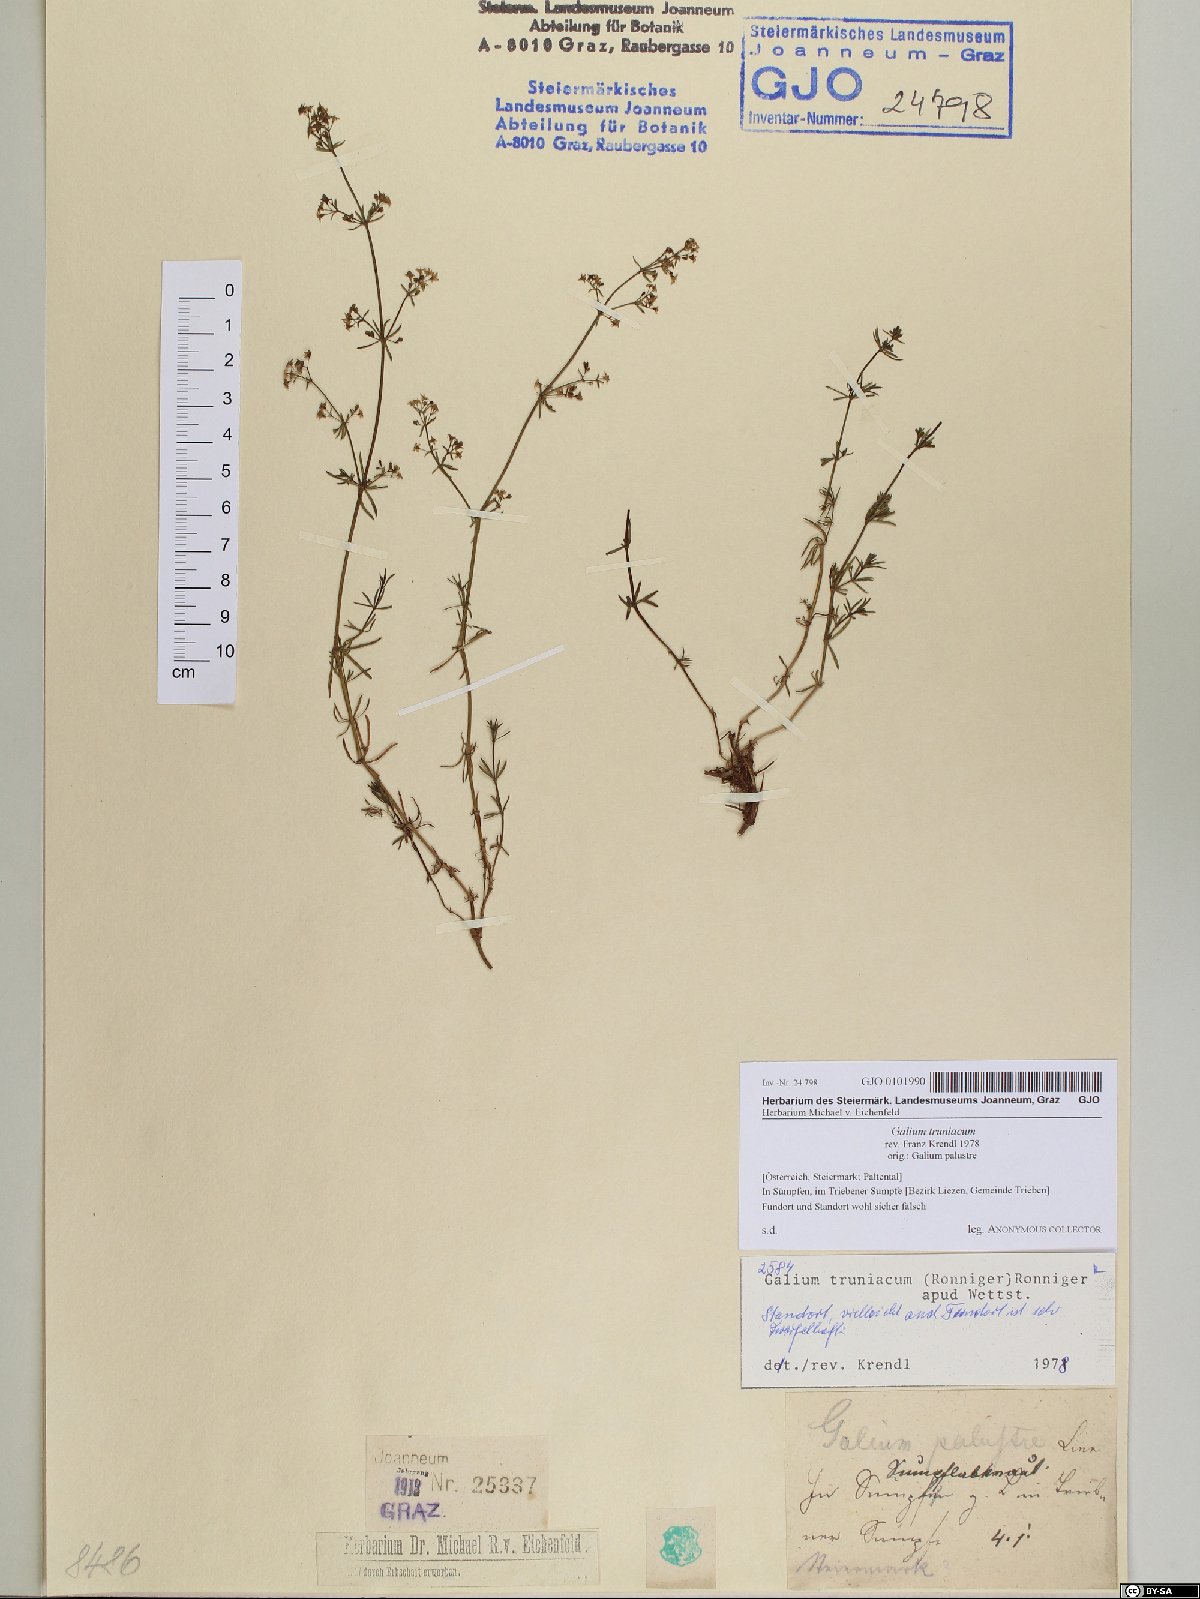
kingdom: Plantae
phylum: Tracheophyta
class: Magnoliopsida
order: Gentianales
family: Rubiaceae
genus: Galium
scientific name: Galium truniacum
